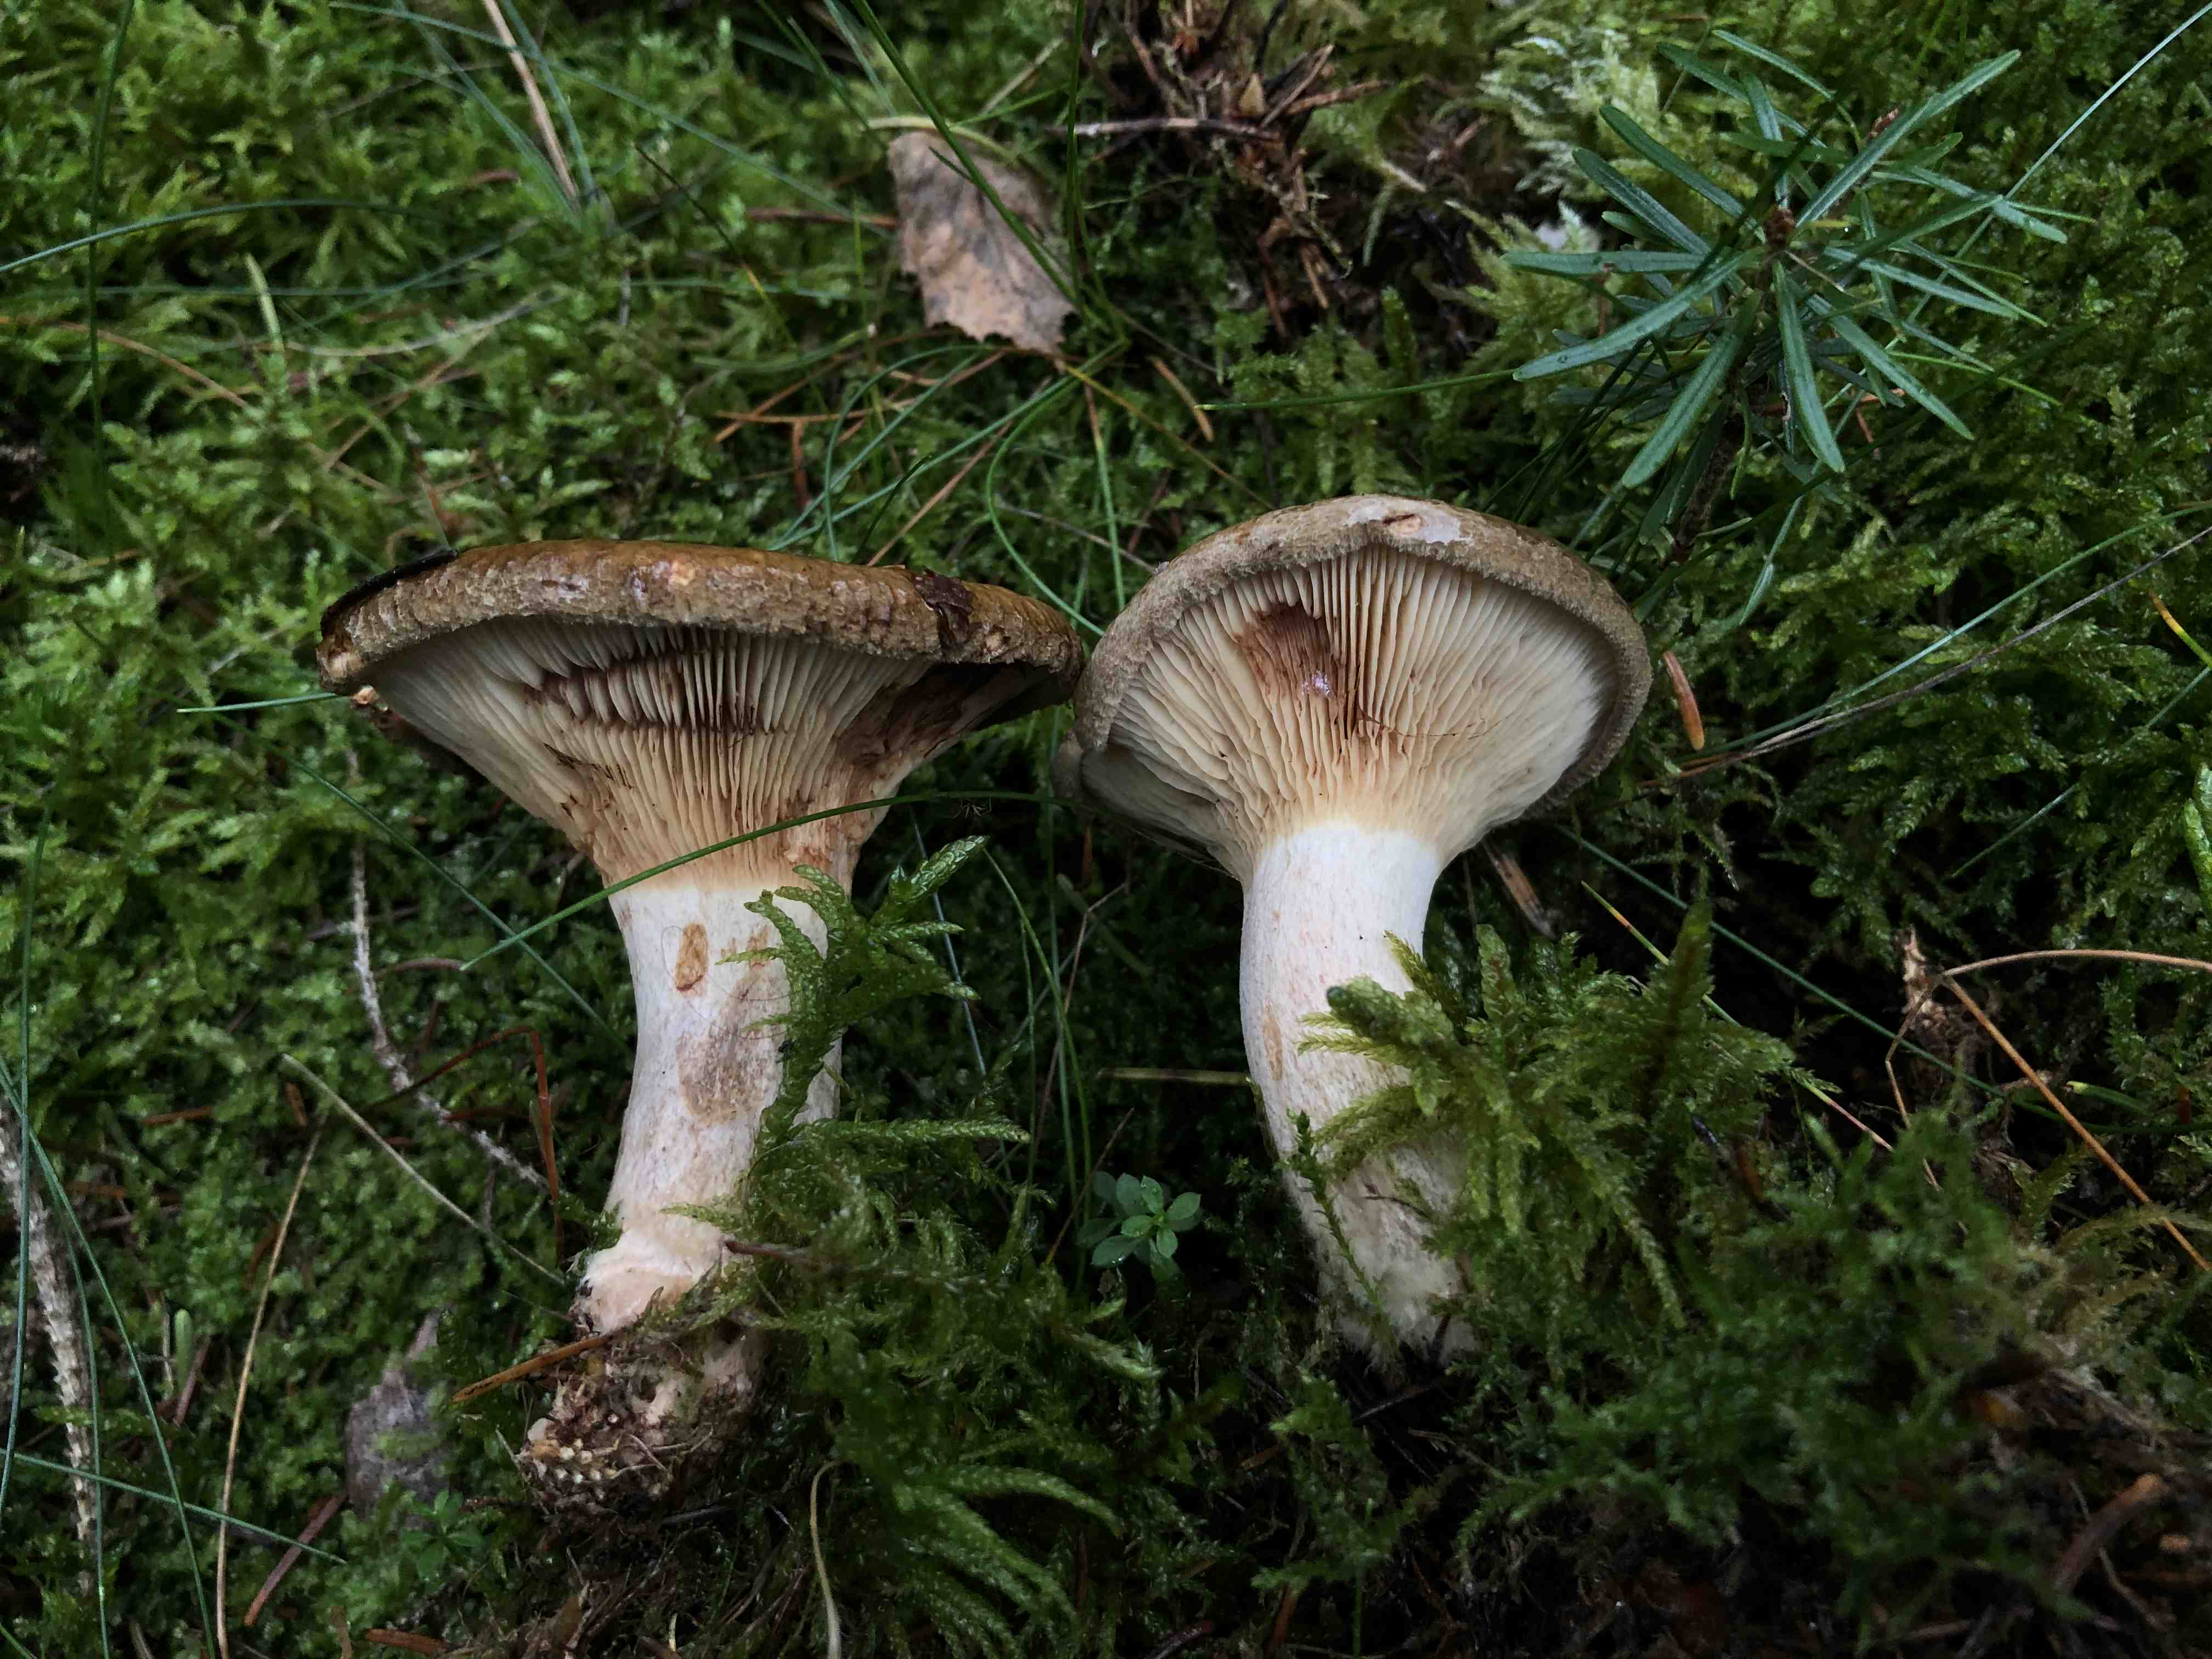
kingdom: Fungi
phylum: Basidiomycota
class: Agaricomycetes
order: Boletales
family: Paxillaceae
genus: Paxillus
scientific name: Paxillus involutus
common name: almindelig netbladhat
